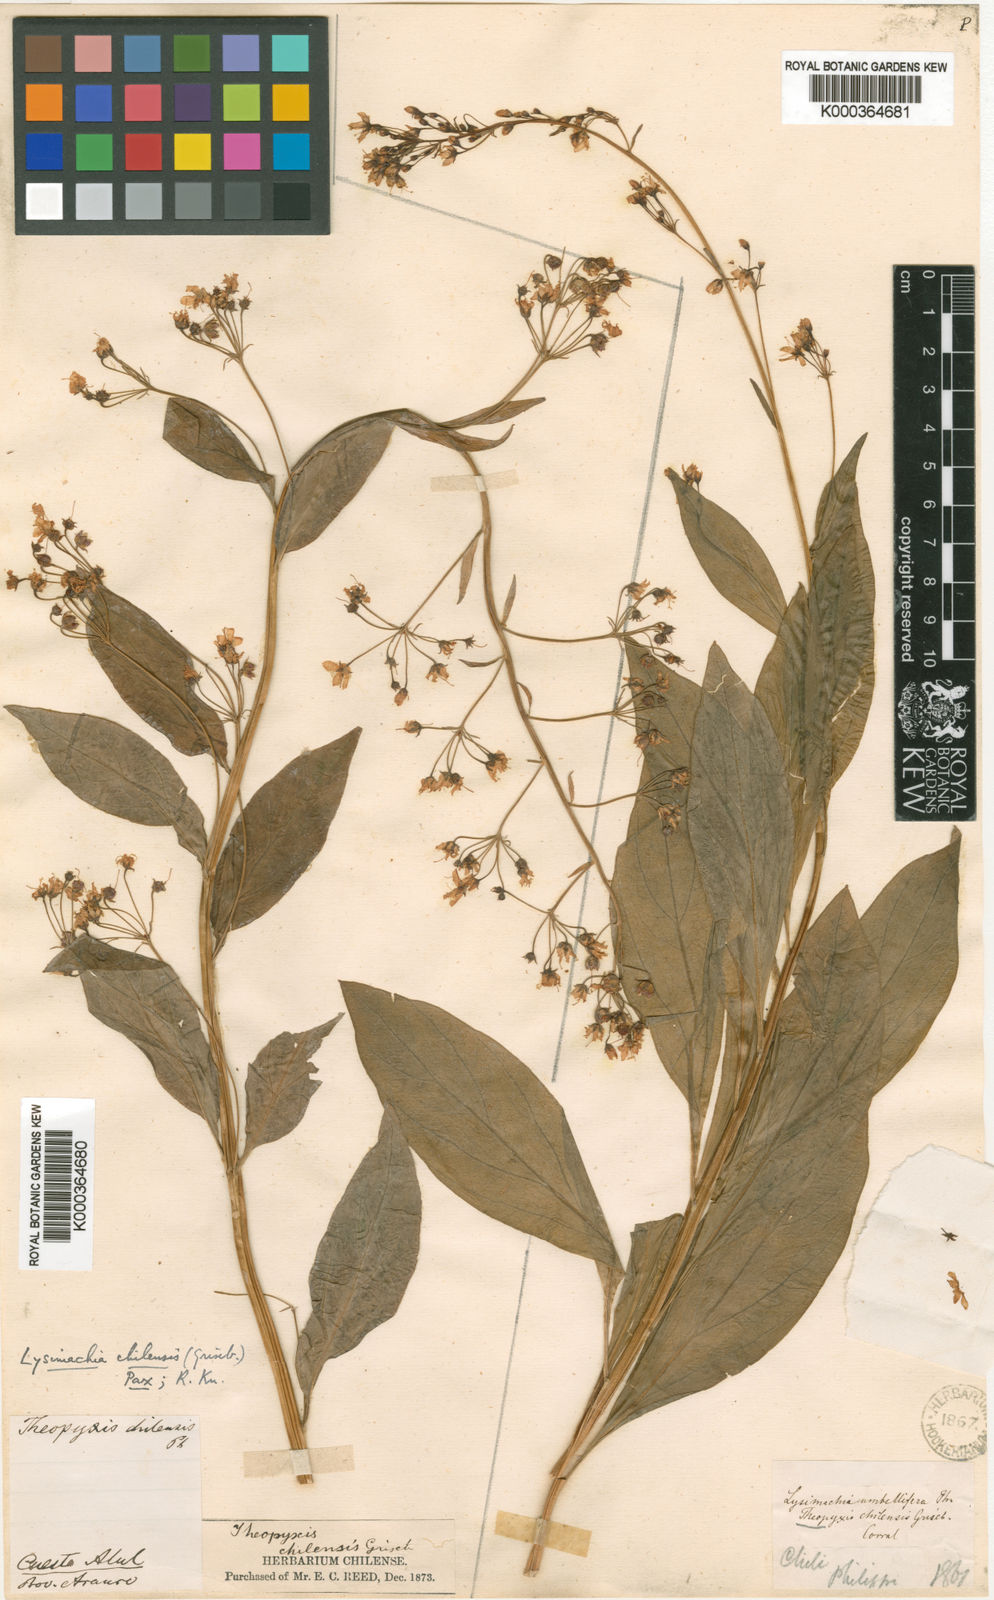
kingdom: Plantae
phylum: Tracheophyta
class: Magnoliopsida
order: Ericales
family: Primulaceae
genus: Lysimachia
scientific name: Lysimachia sertulata
